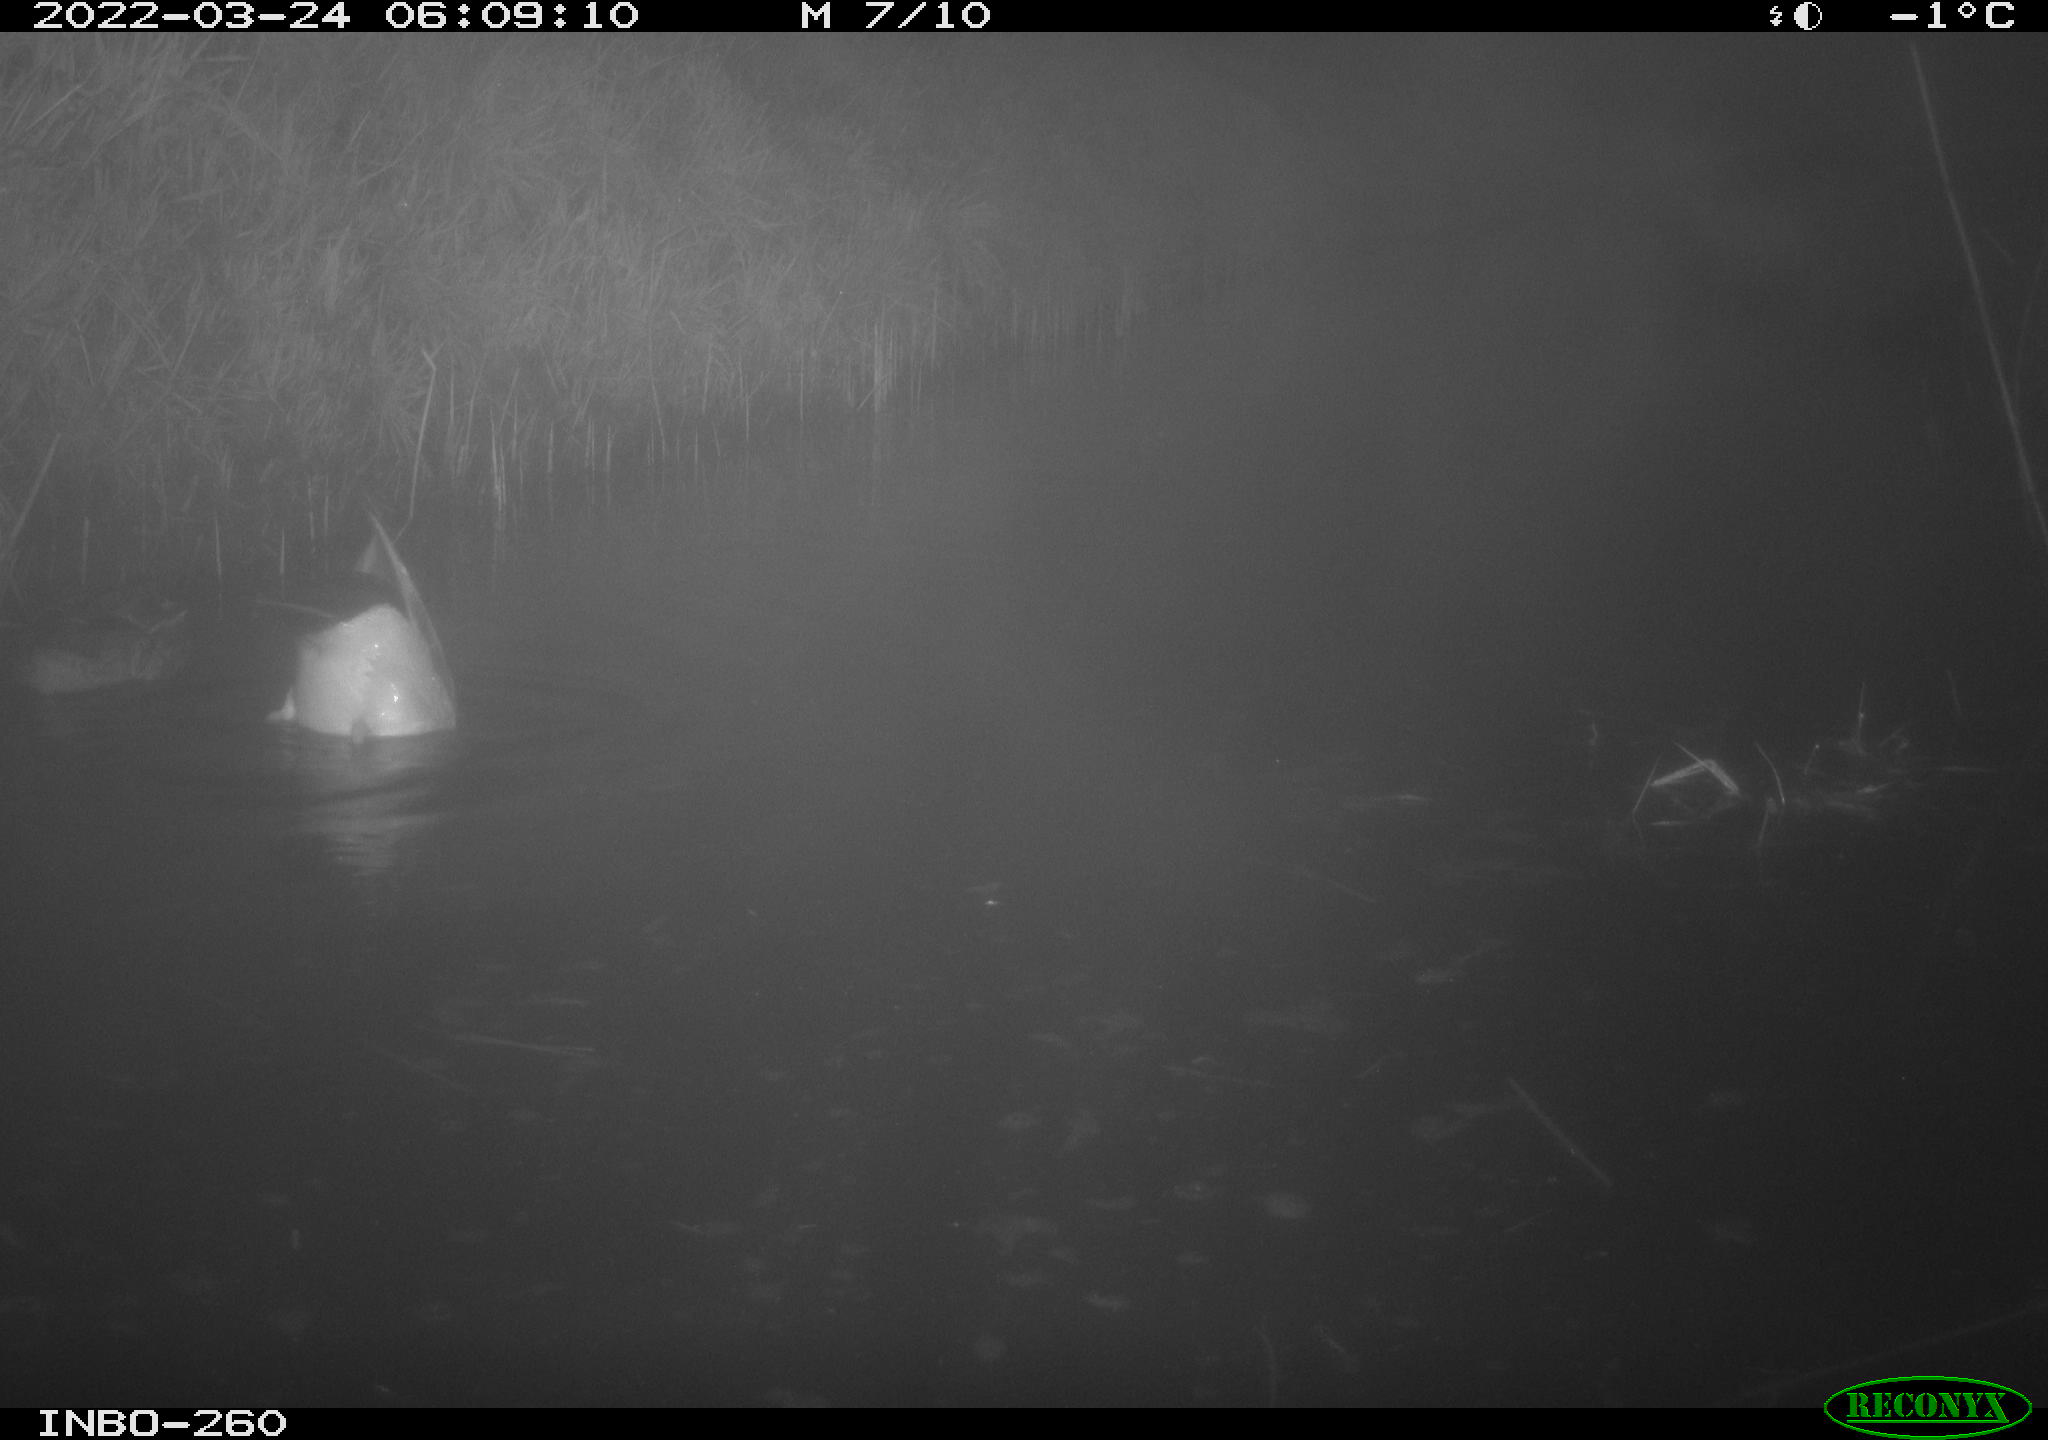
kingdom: Animalia
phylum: Chordata
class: Aves
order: Anseriformes
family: Anatidae
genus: Anas
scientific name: Anas platyrhynchos
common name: Mallard
